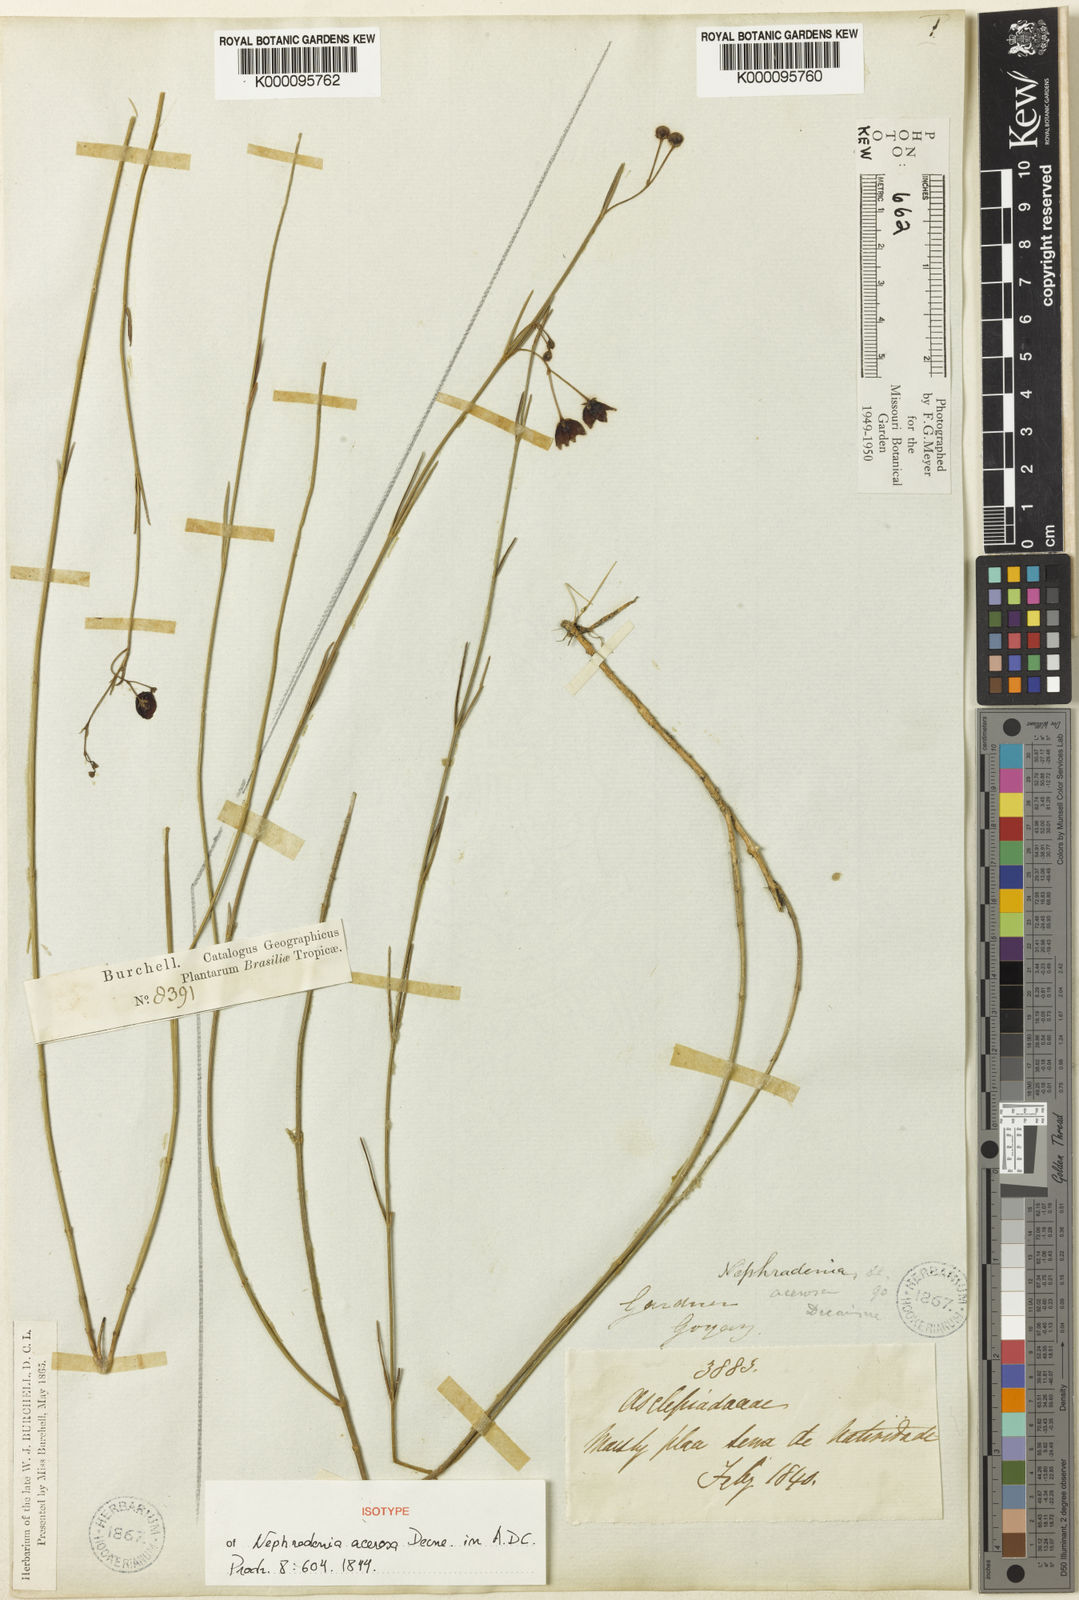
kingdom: Plantae
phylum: Tracheophyta
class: Magnoliopsida
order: Gentianales
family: Apocynaceae
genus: Nephradenia
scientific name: Nephradenia acerosa
